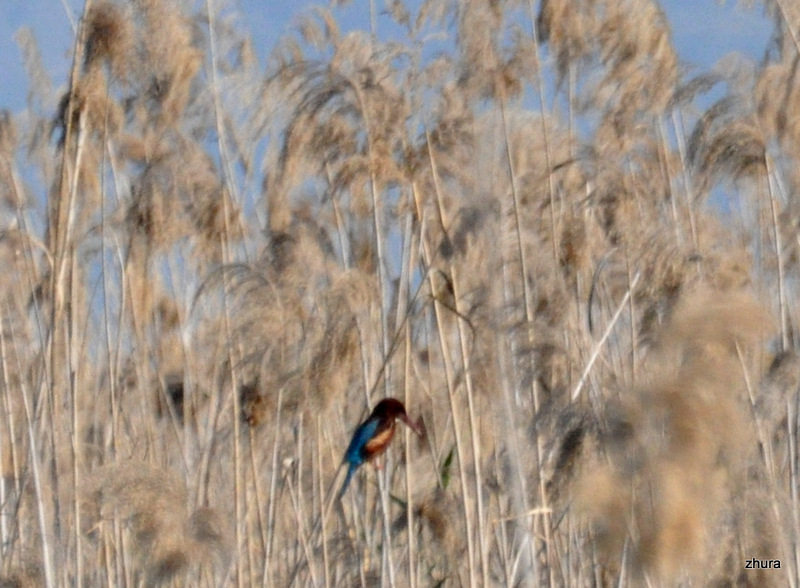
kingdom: Animalia
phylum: Chordata
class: Aves
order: Coraciiformes
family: Alcedinidae
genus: Halcyon
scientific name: Halcyon smyrnensis
